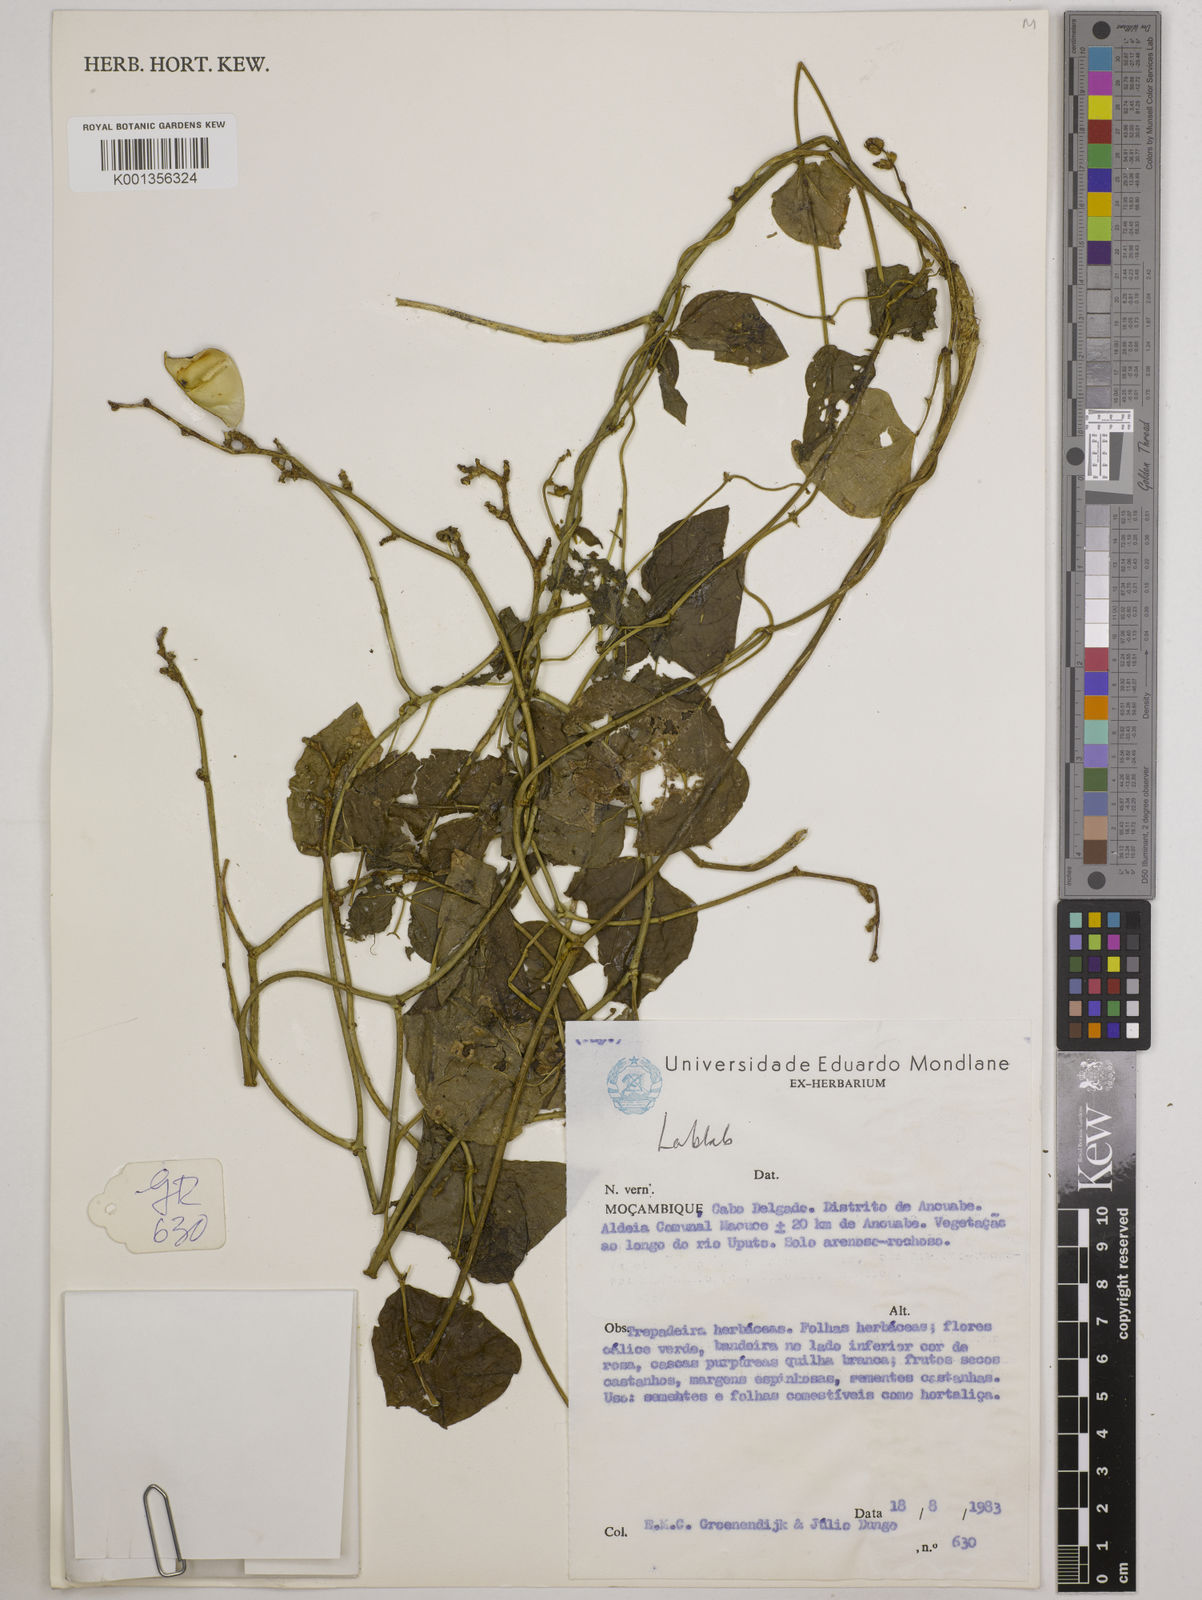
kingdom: Plantae
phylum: Tracheophyta
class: Magnoliopsida
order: Fabales
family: Fabaceae
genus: Lablab
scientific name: Lablab
